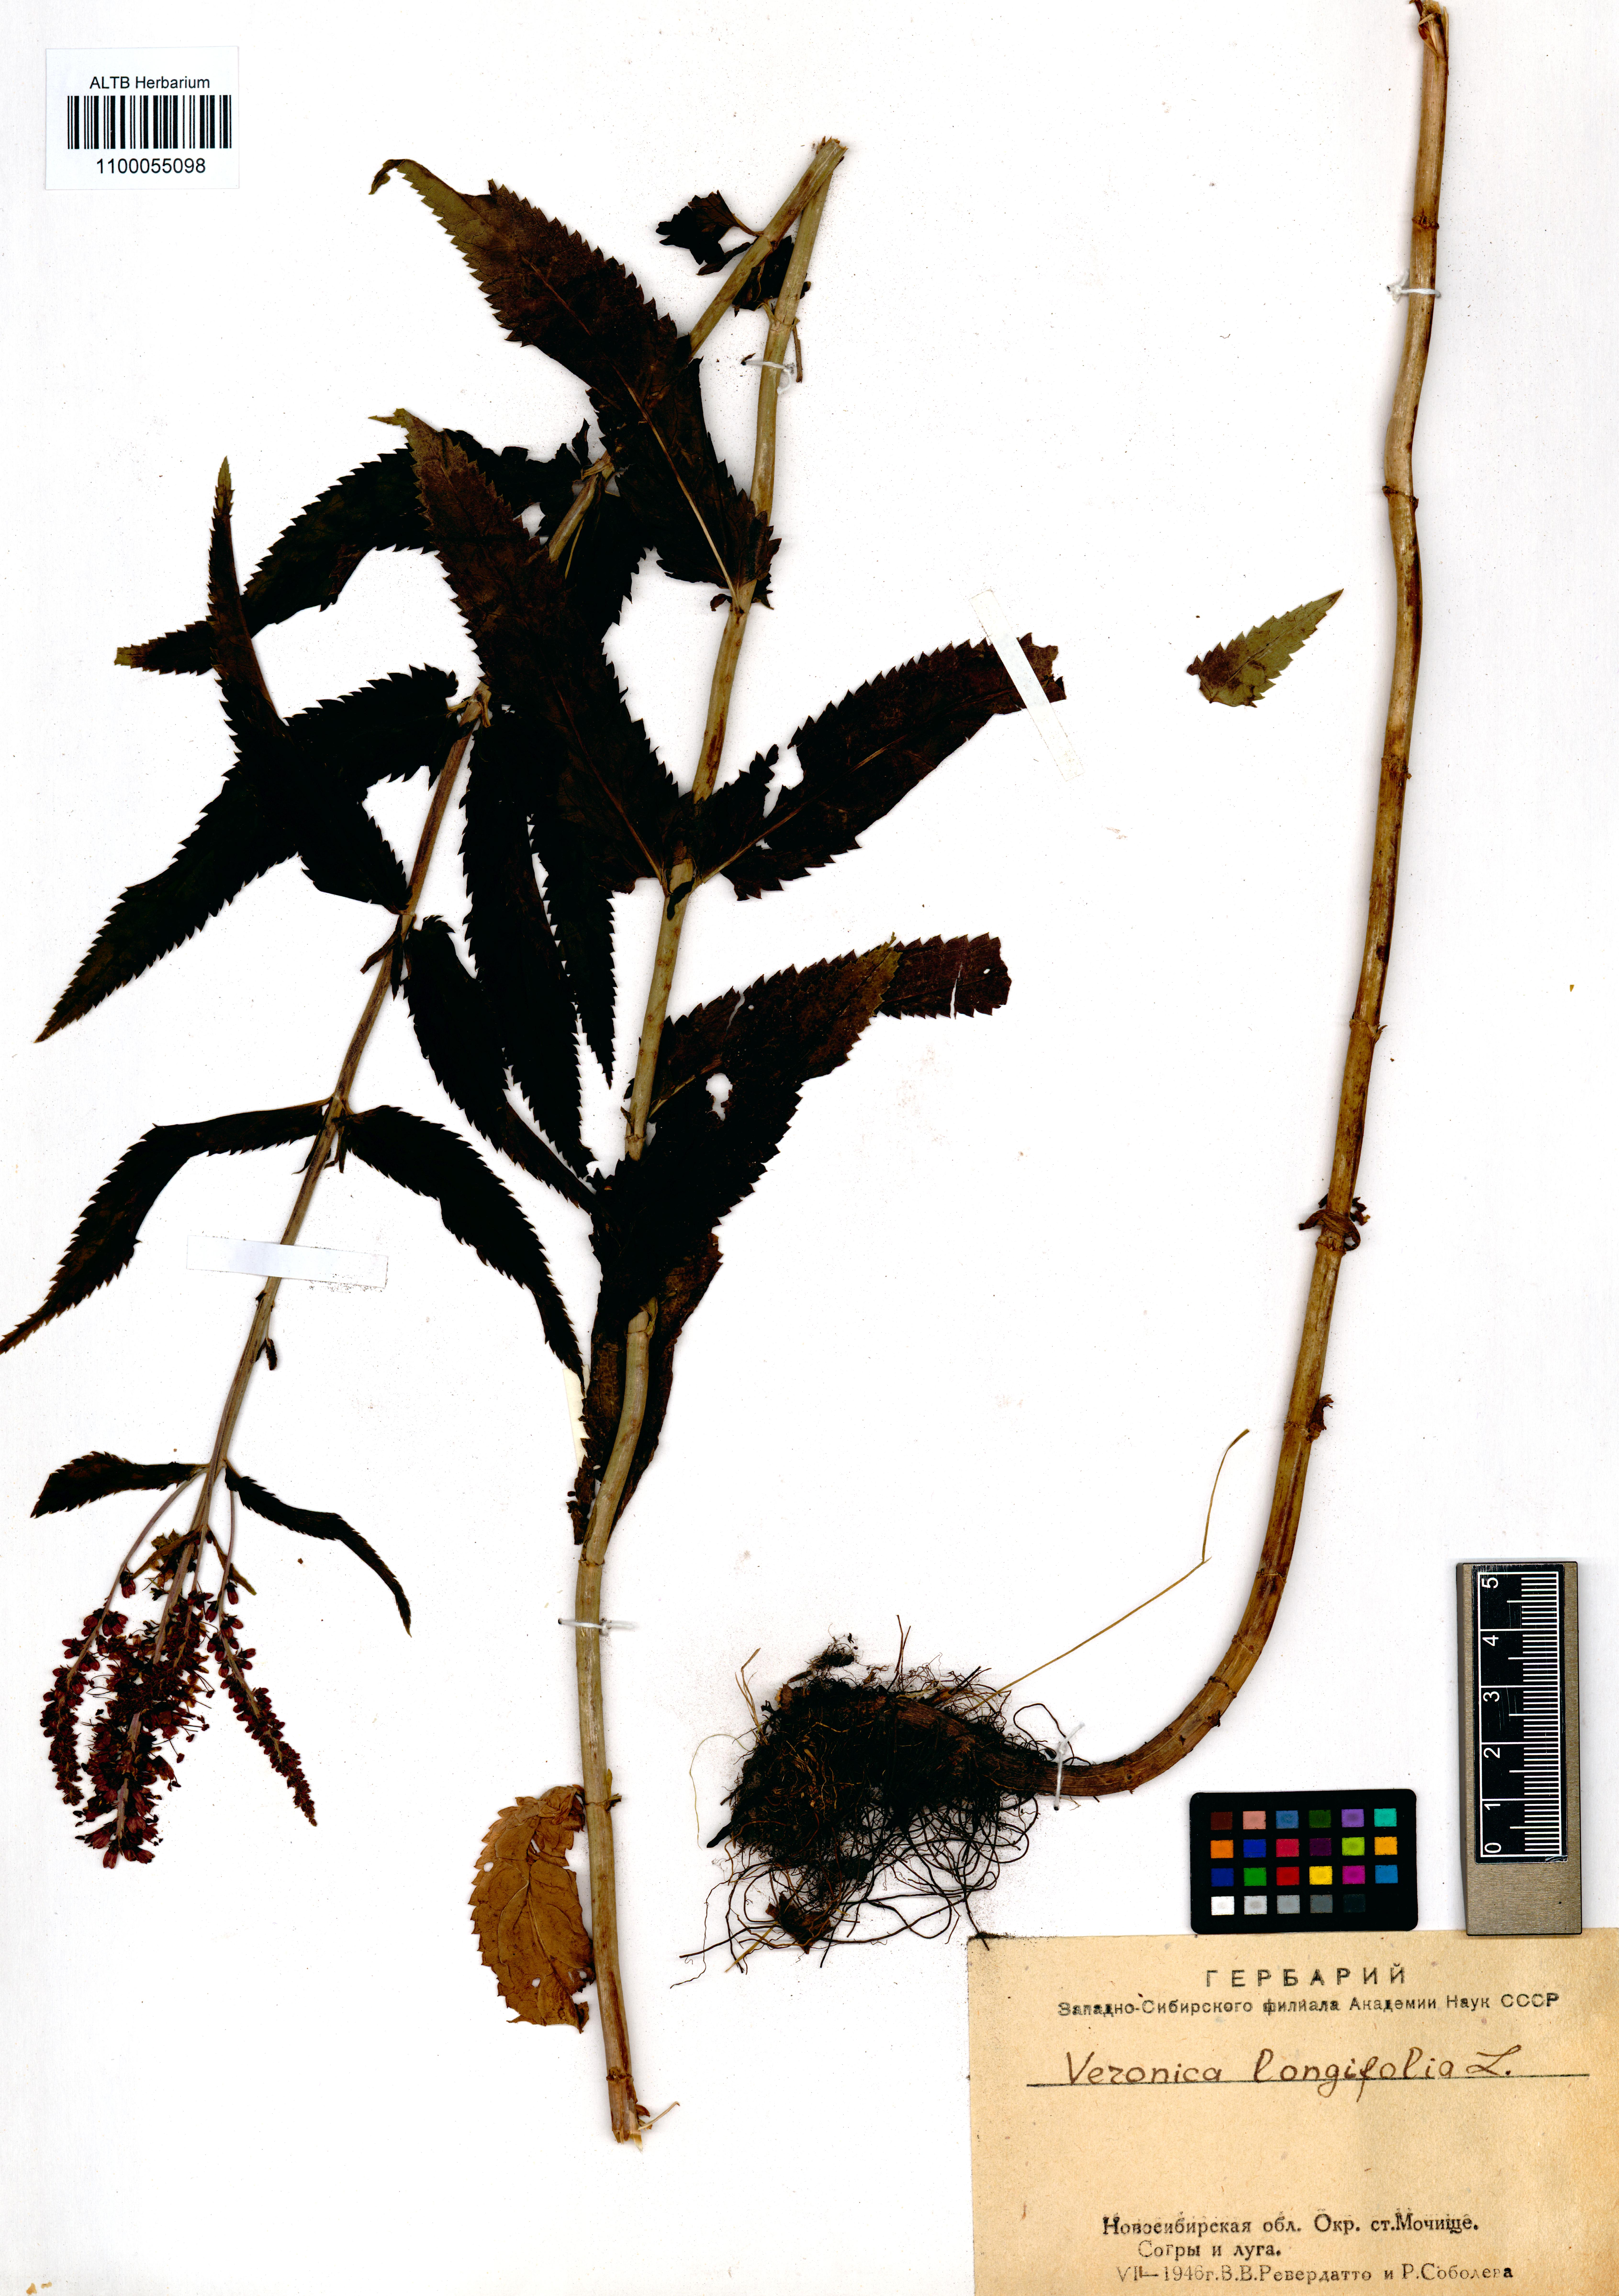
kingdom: Plantae
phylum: Tracheophyta
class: Magnoliopsida
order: Lamiales
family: Plantaginaceae
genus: Veronica
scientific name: Veronica longifolia
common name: Garden speedwell
